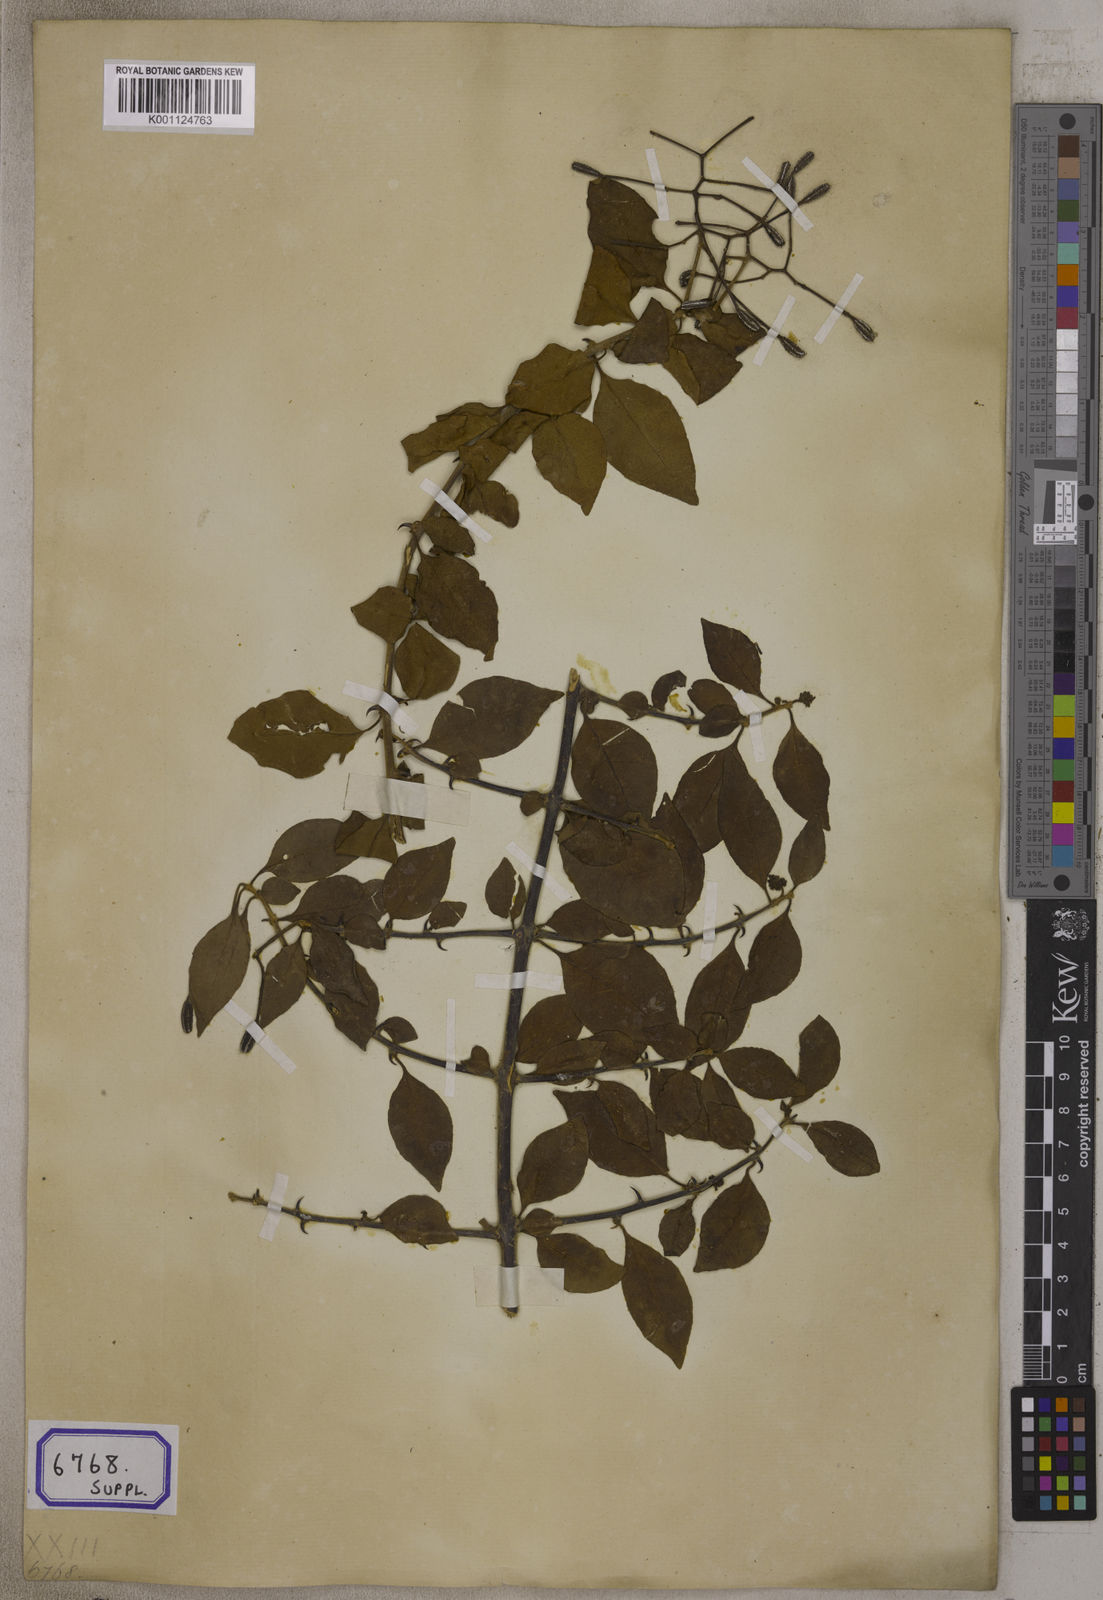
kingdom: Plantae
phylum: Tracheophyta
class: Magnoliopsida
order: Caryophyllales
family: Nyctaginaceae
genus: Pisonia
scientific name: Pisonia aculeata
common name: Cockspur vine
